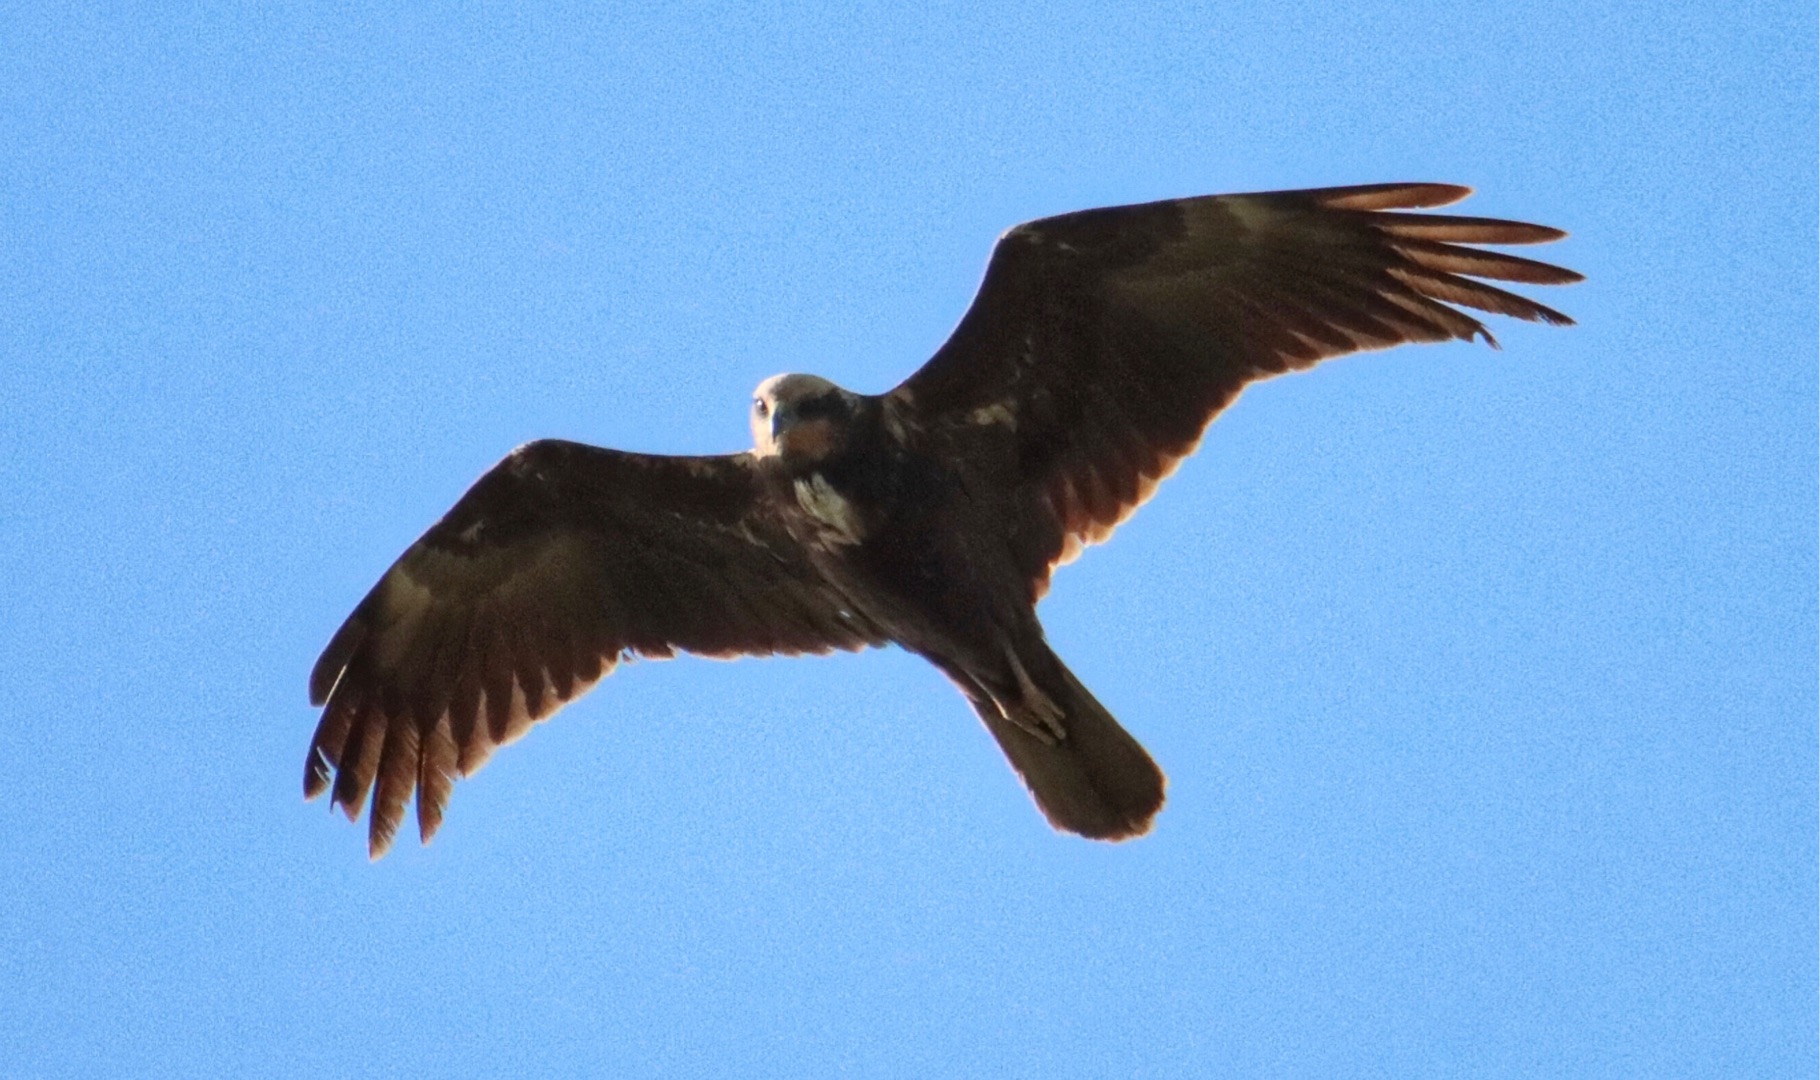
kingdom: Animalia
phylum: Chordata
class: Aves
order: Accipitriformes
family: Accipitridae
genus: Circus
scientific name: Circus aeruginosus
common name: Rørhøg
